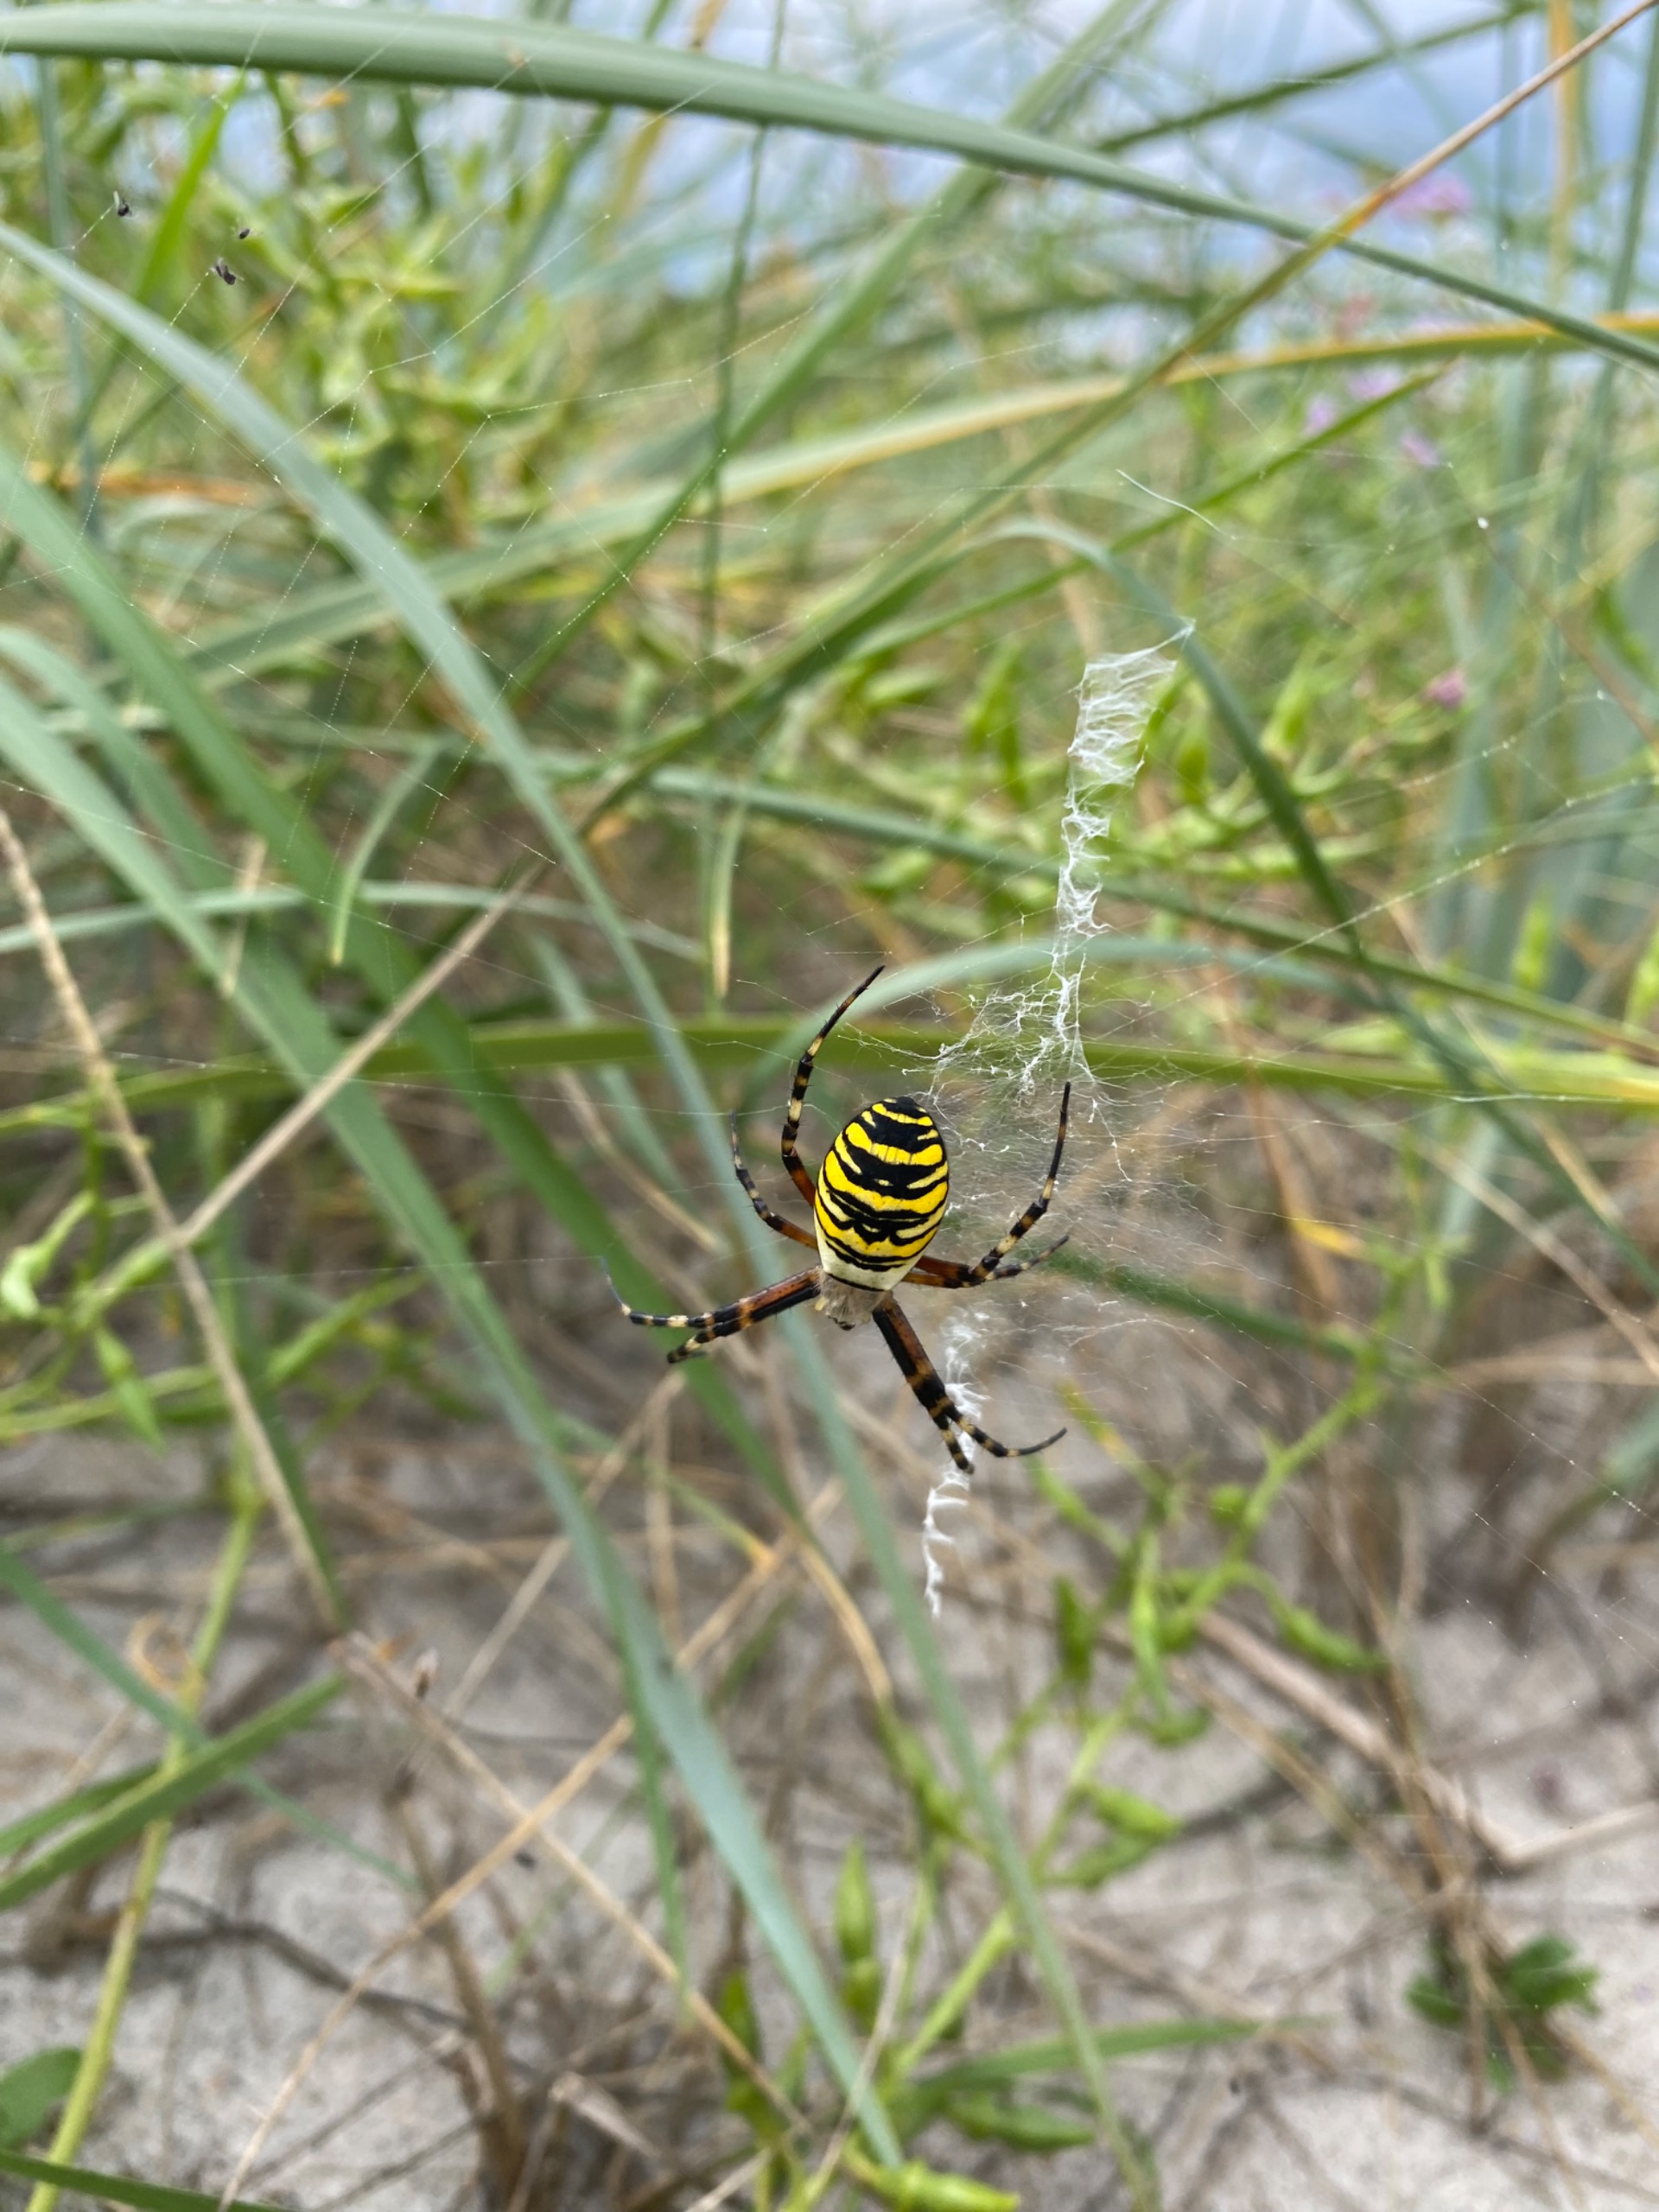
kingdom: Animalia
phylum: Arthropoda
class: Arachnida
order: Araneae
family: Araneidae
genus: Argiope
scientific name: Argiope bruennichi
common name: Hvepseedderkop
